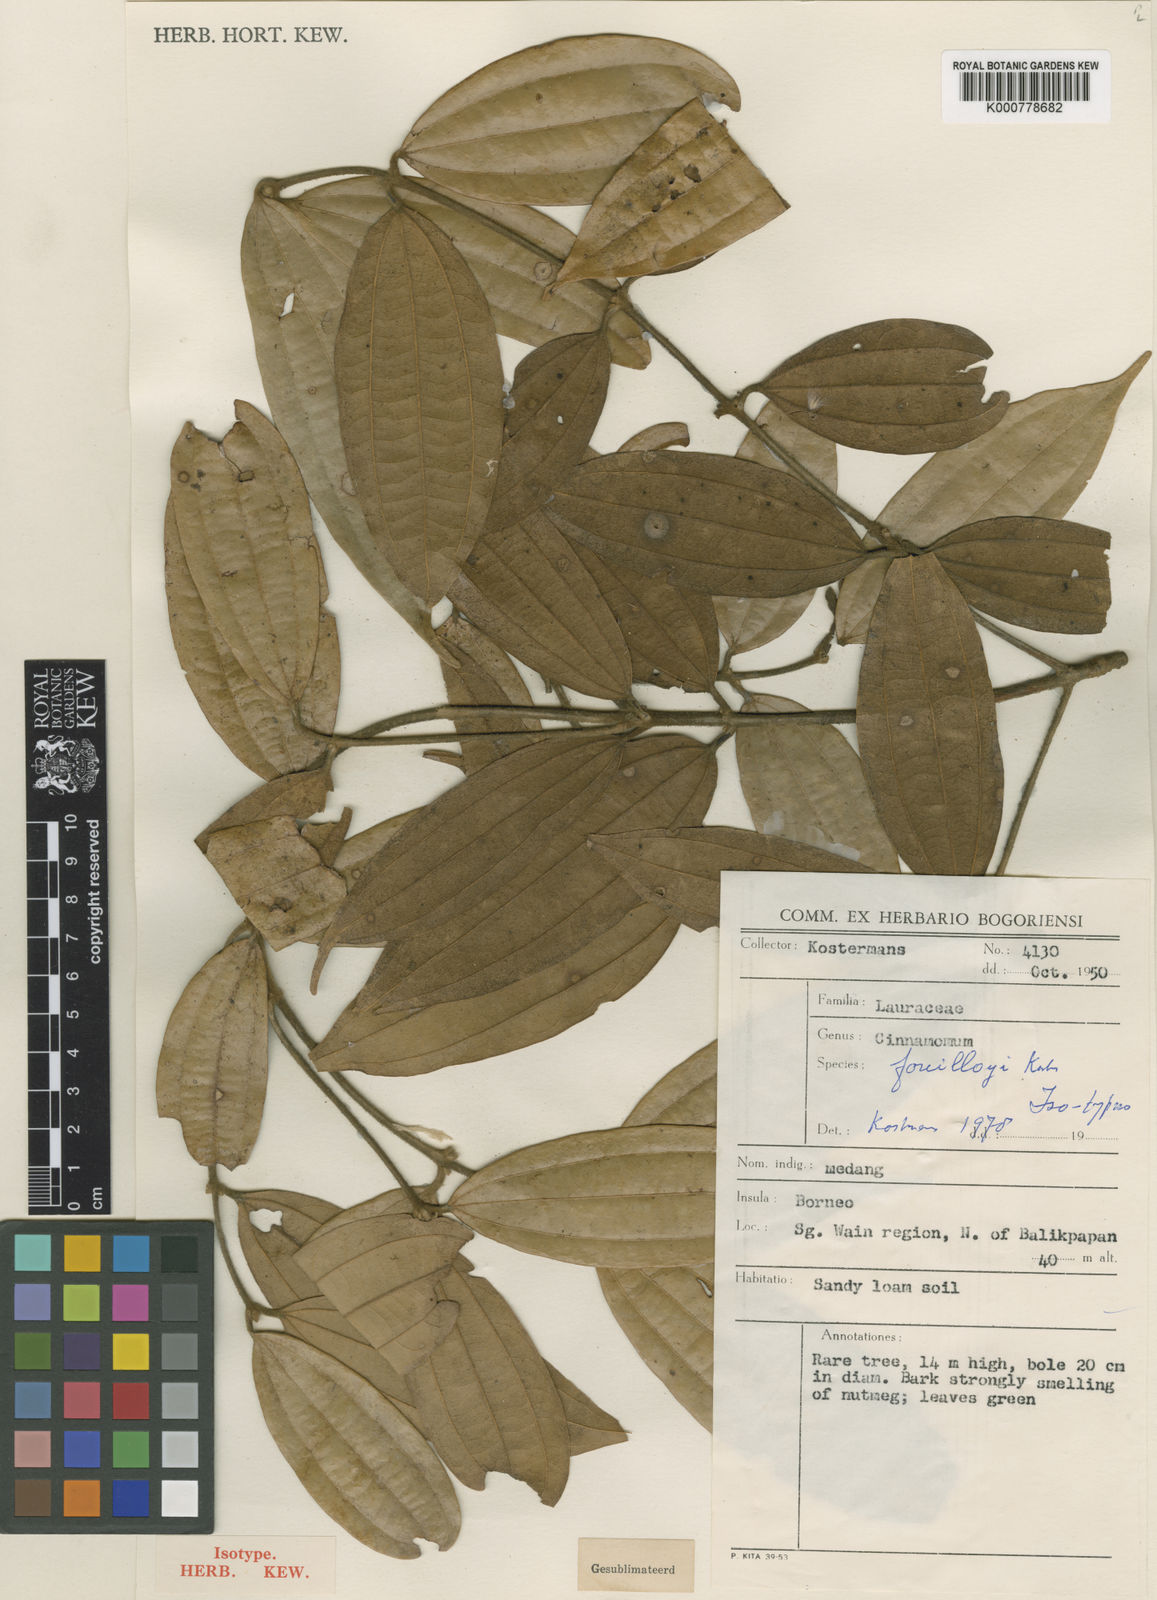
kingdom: Plantae
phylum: Tracheophyta
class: Magnoliopsida
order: Laurales
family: Lauraceae
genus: Cinnamomum
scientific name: Cinnamomum tahijanum
